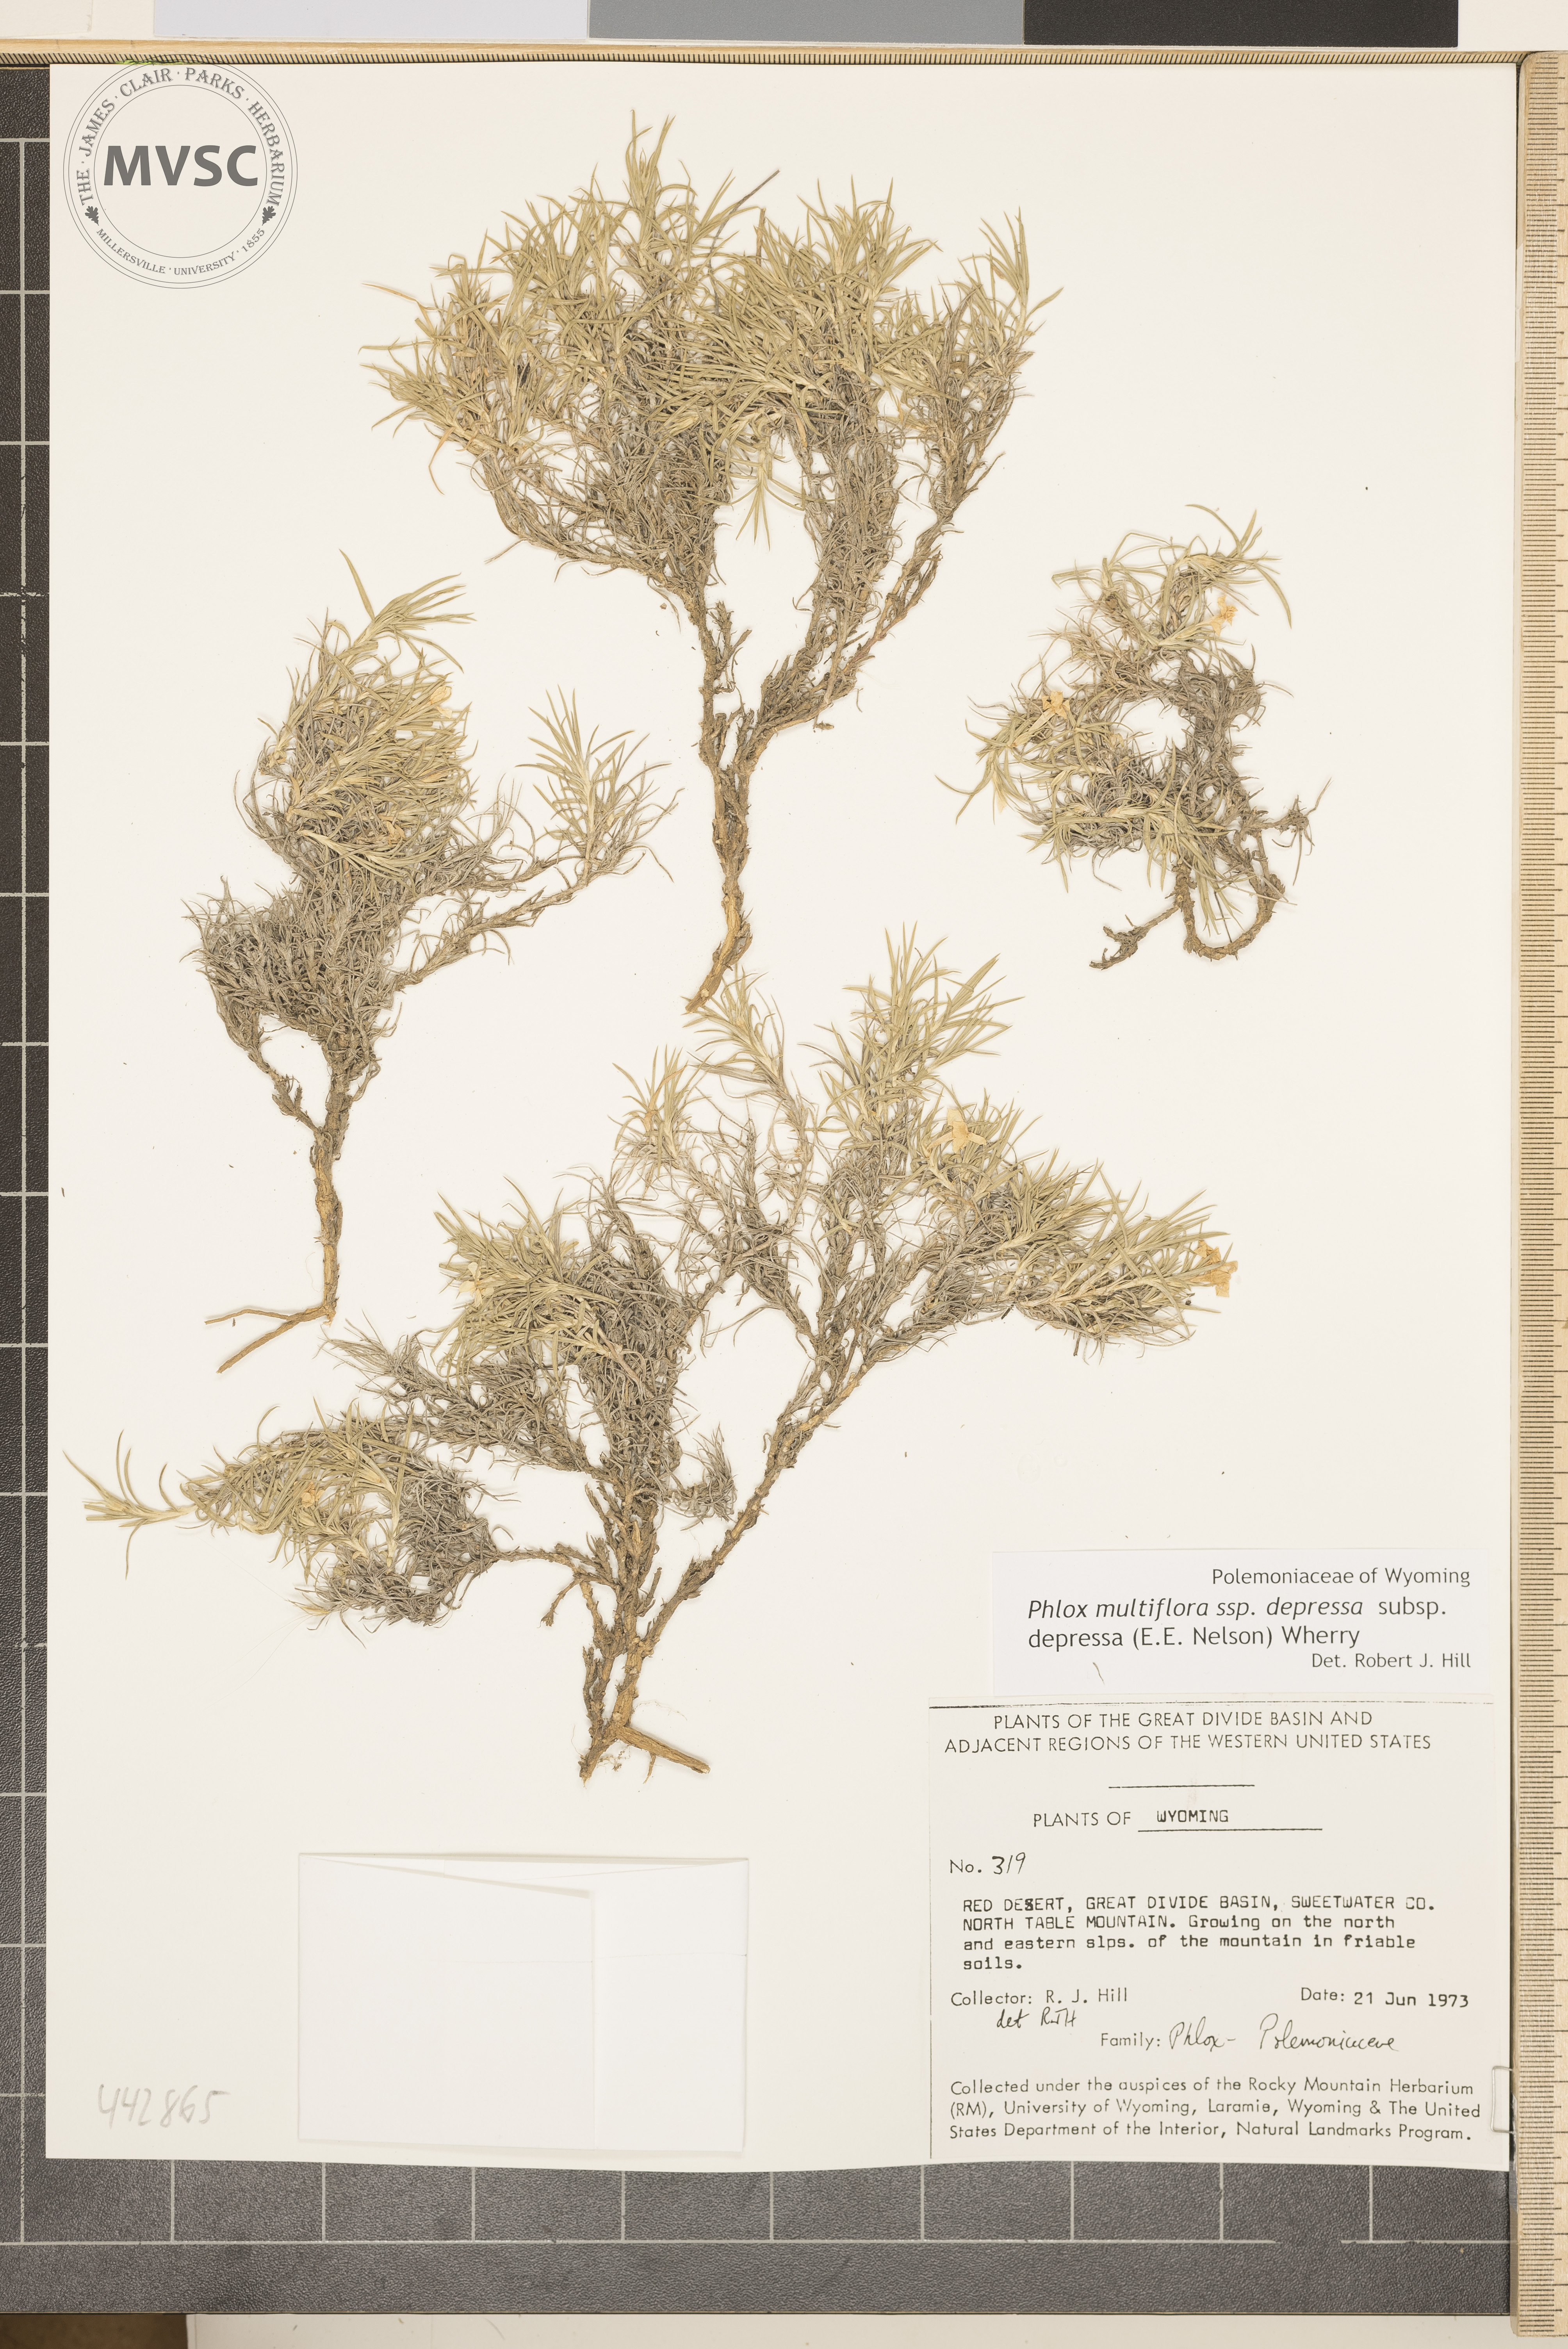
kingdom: Plantae
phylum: Tracheophyta
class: Magnoliopsida
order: Ericales
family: Polemoniaceae
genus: Phlox
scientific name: Phlox multiflora
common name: Rocky mountain phlox
